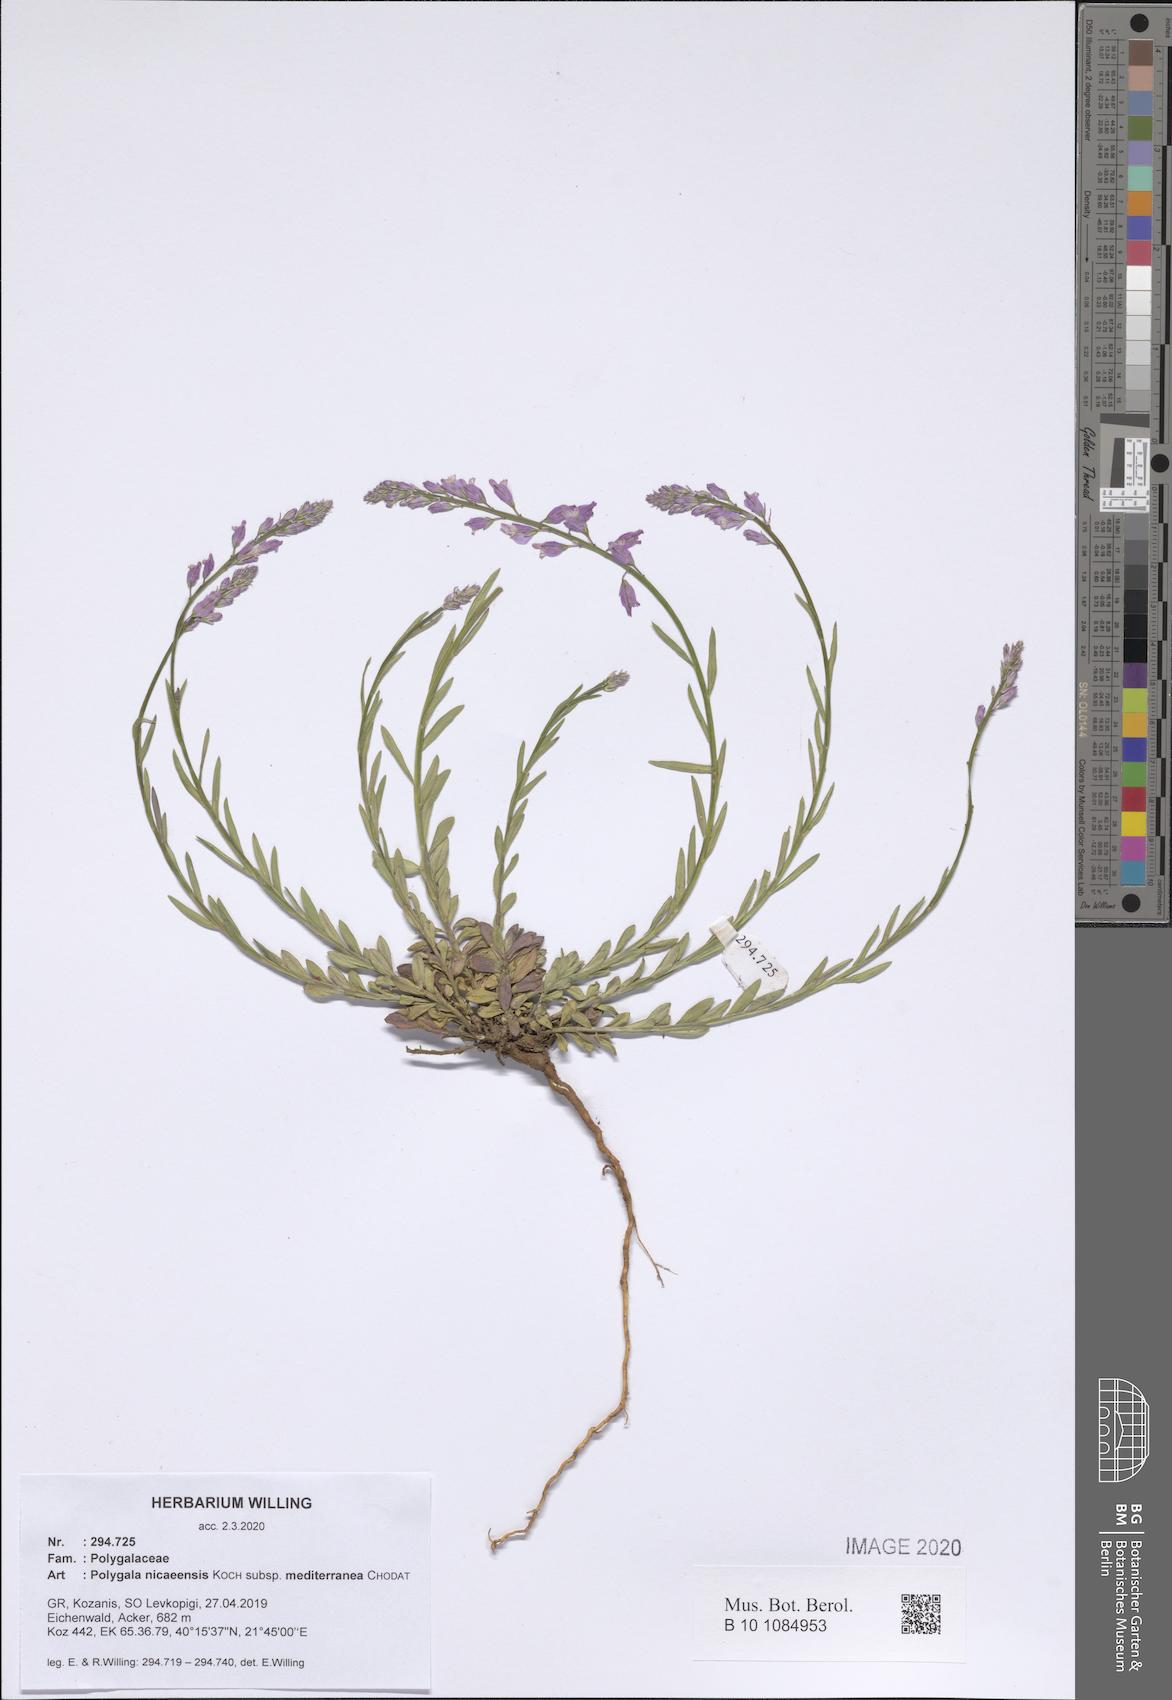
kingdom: Plantae
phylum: Tracheophyta
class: Magnoliopsida
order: Fabales
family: Polygalaceae
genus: Polygala
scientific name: Polygala nicaeensis
